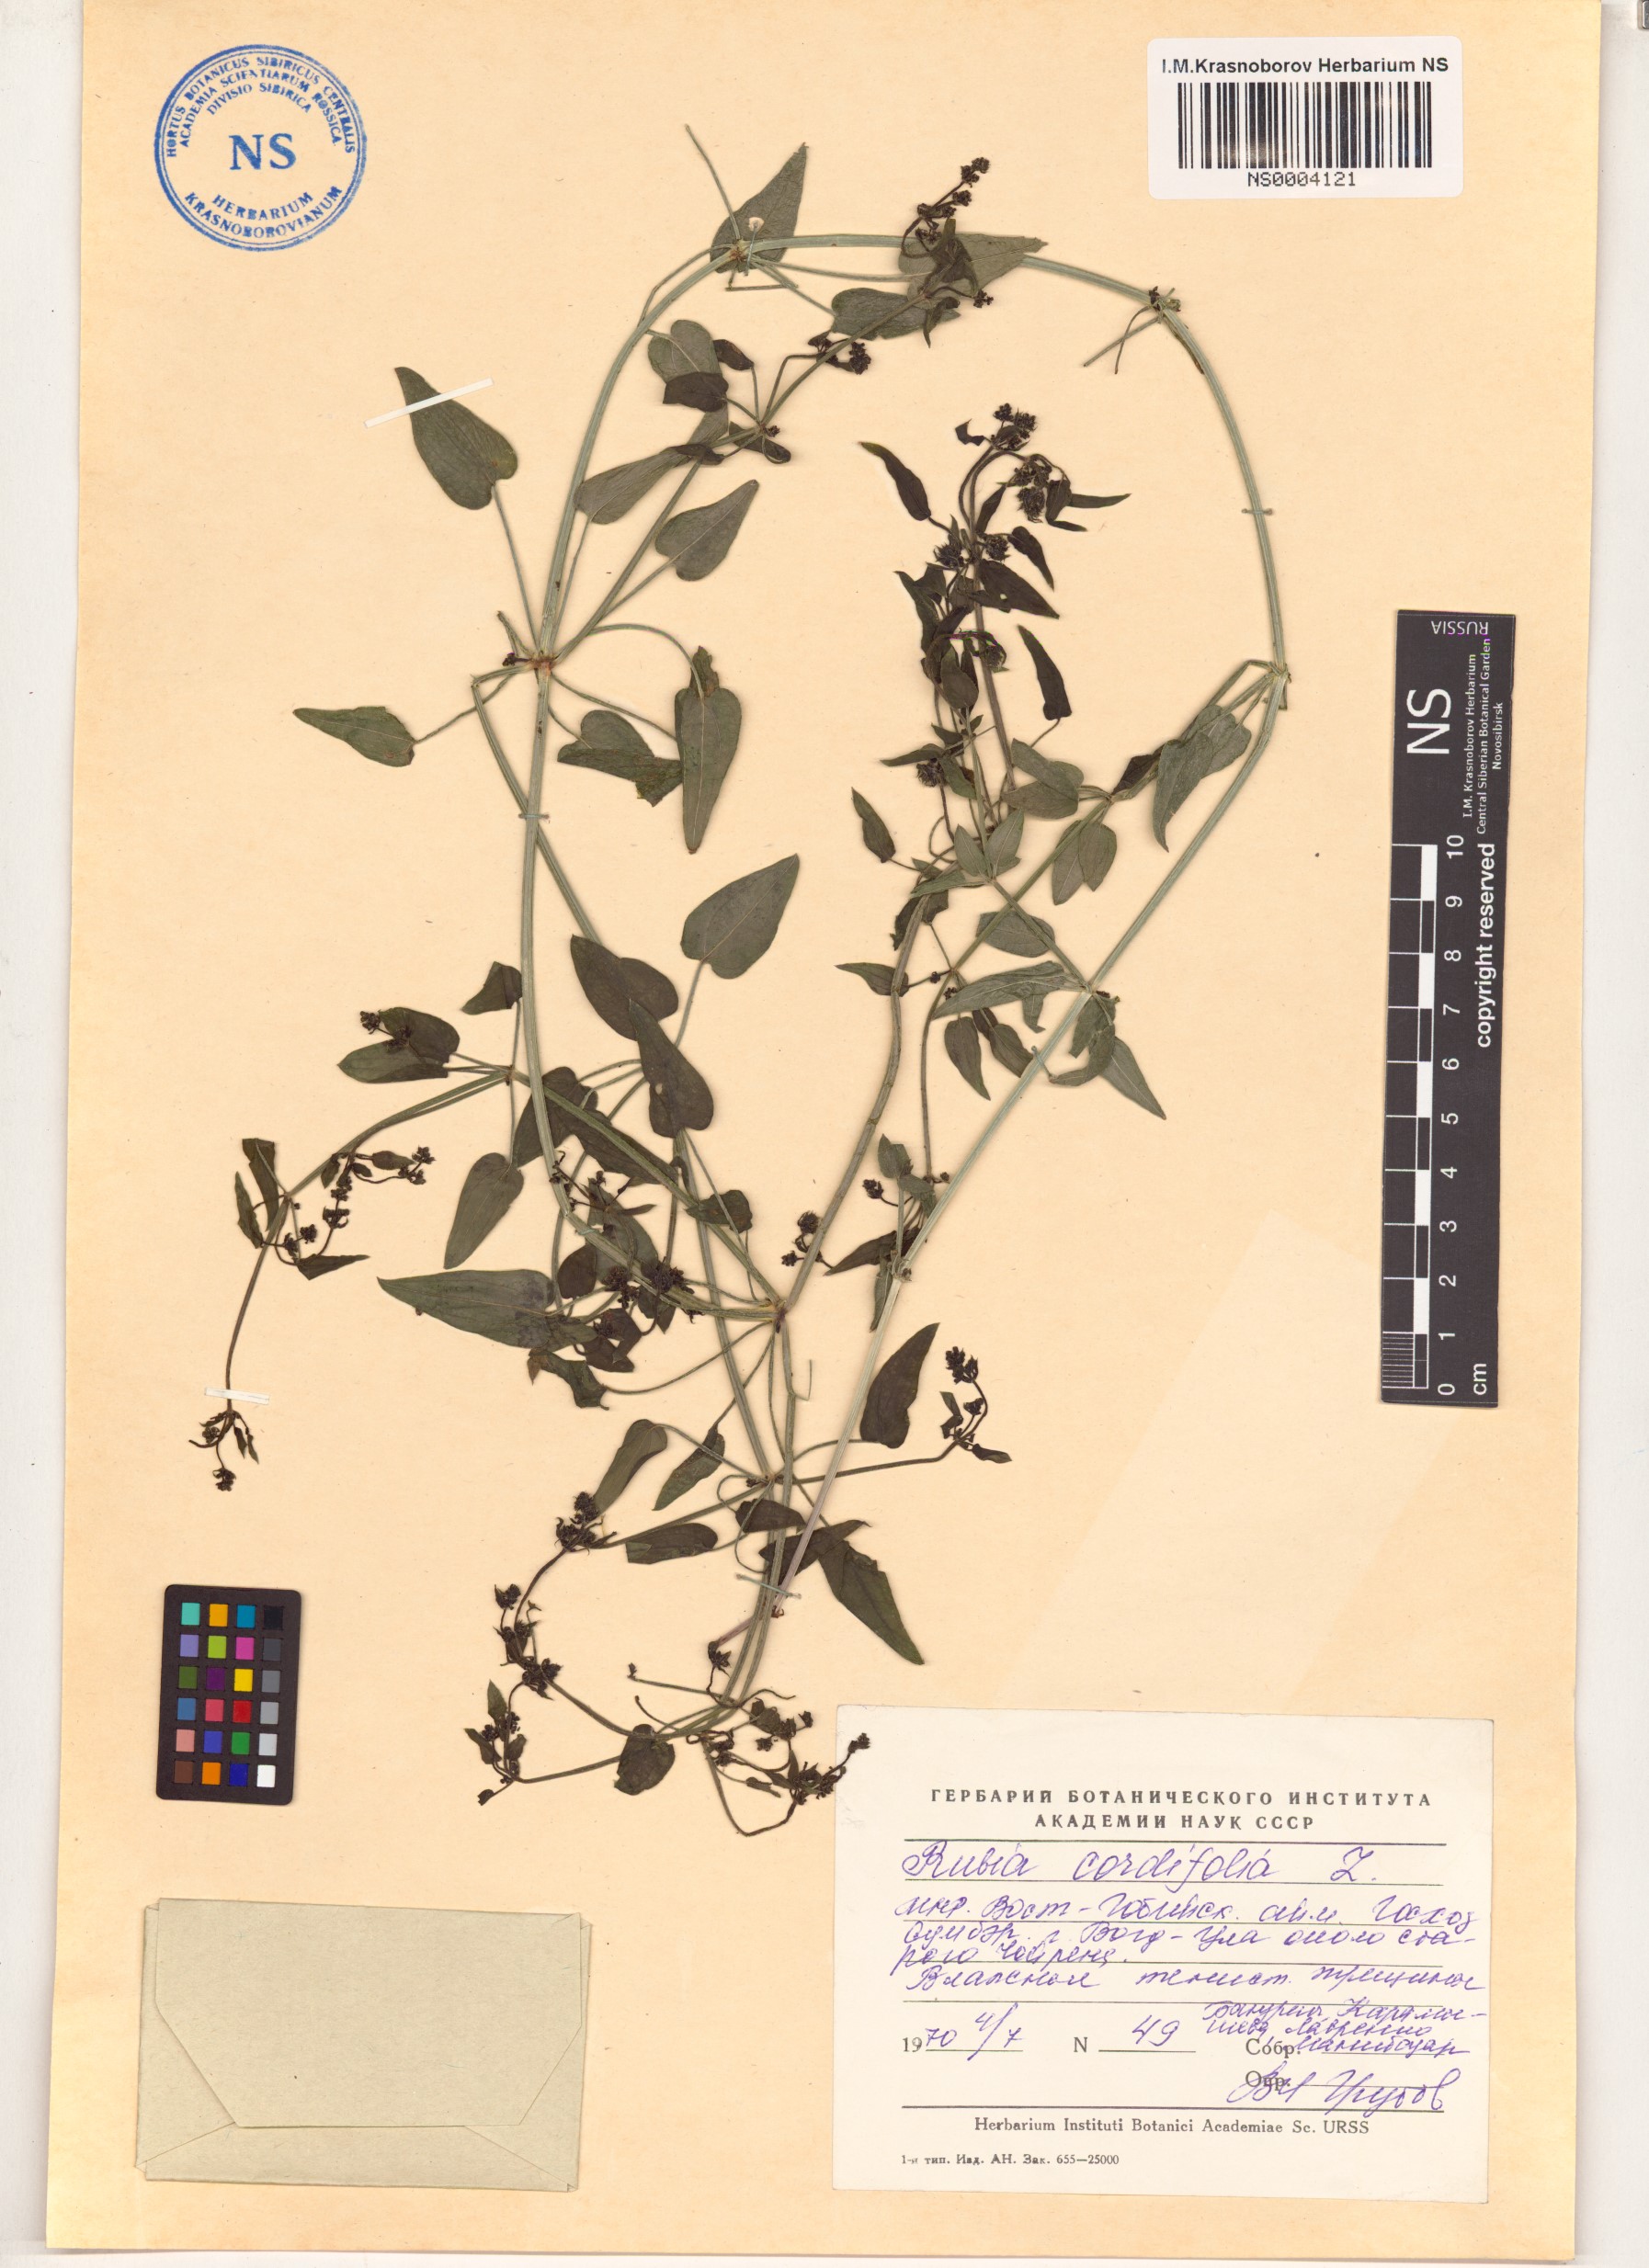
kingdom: Plantae
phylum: Tracheophyta
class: Magnoliopsida
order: Gentianales
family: Rubiaceae
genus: Rubia
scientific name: Rubia cordifolia
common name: Indian madder
